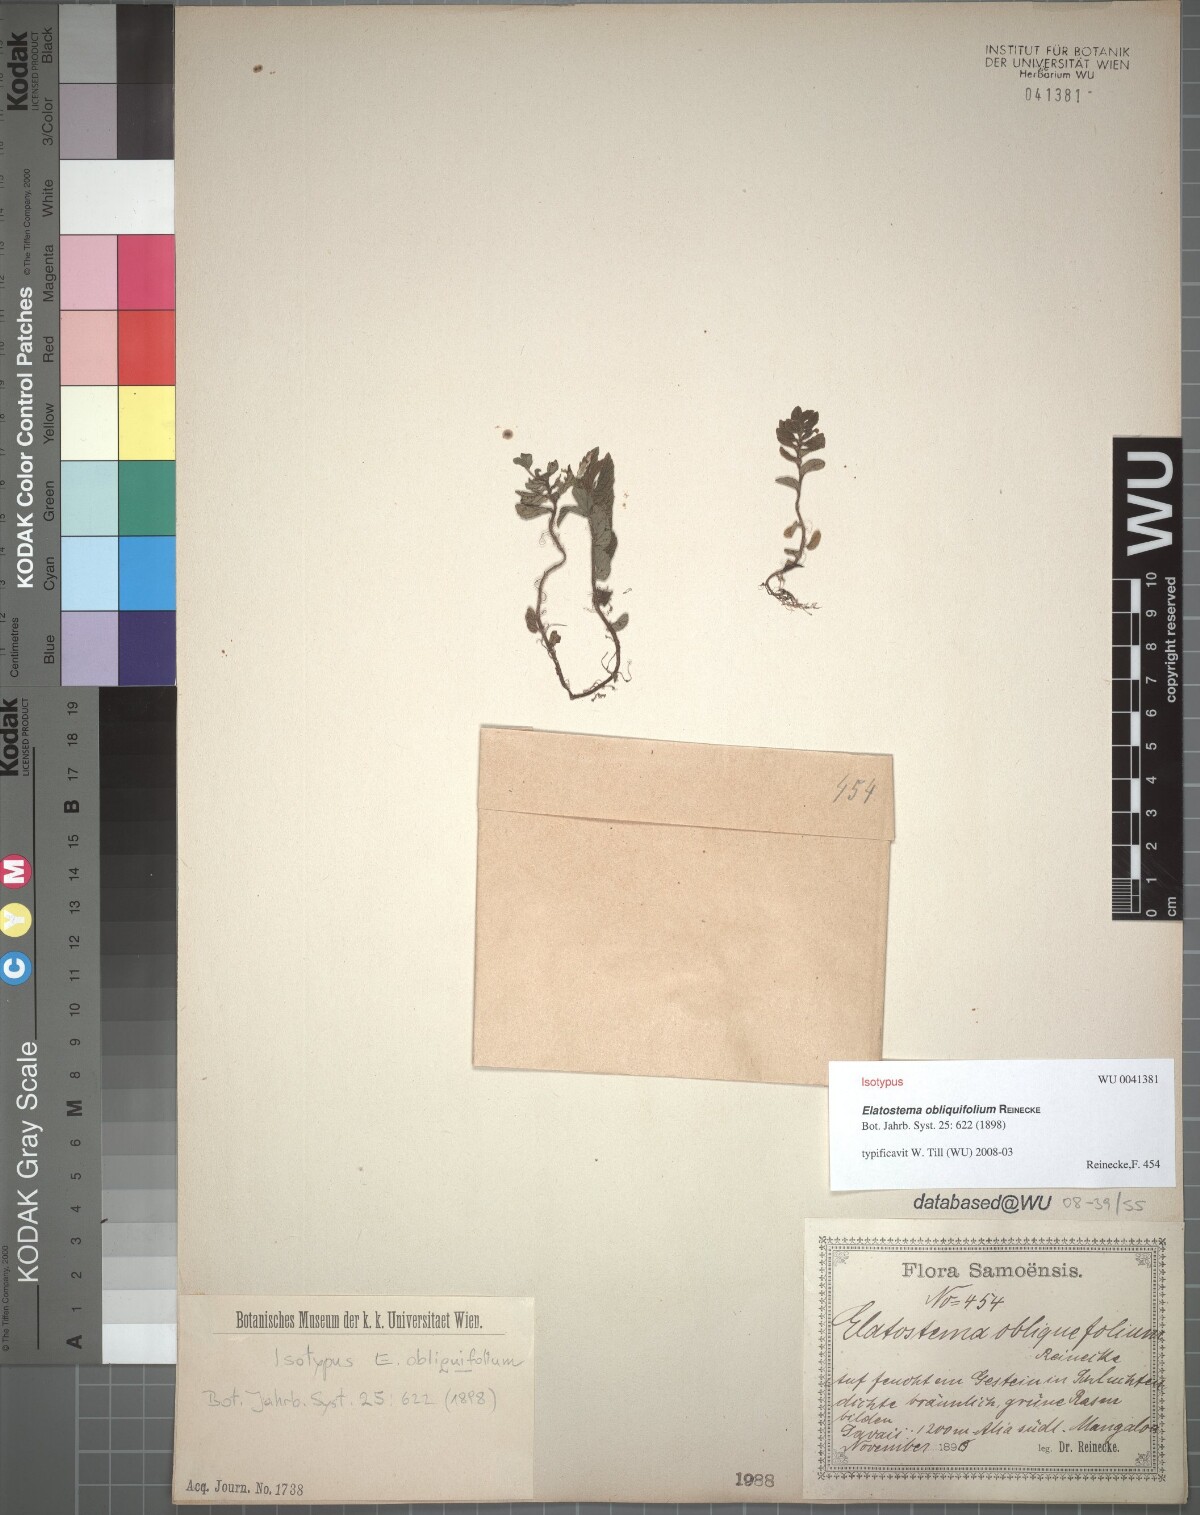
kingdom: Plantae
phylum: Tracheophyta
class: Magnoliopsida
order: Rosales
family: Urticaceae
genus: Elatostema
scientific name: Elatostema obliquifolium
